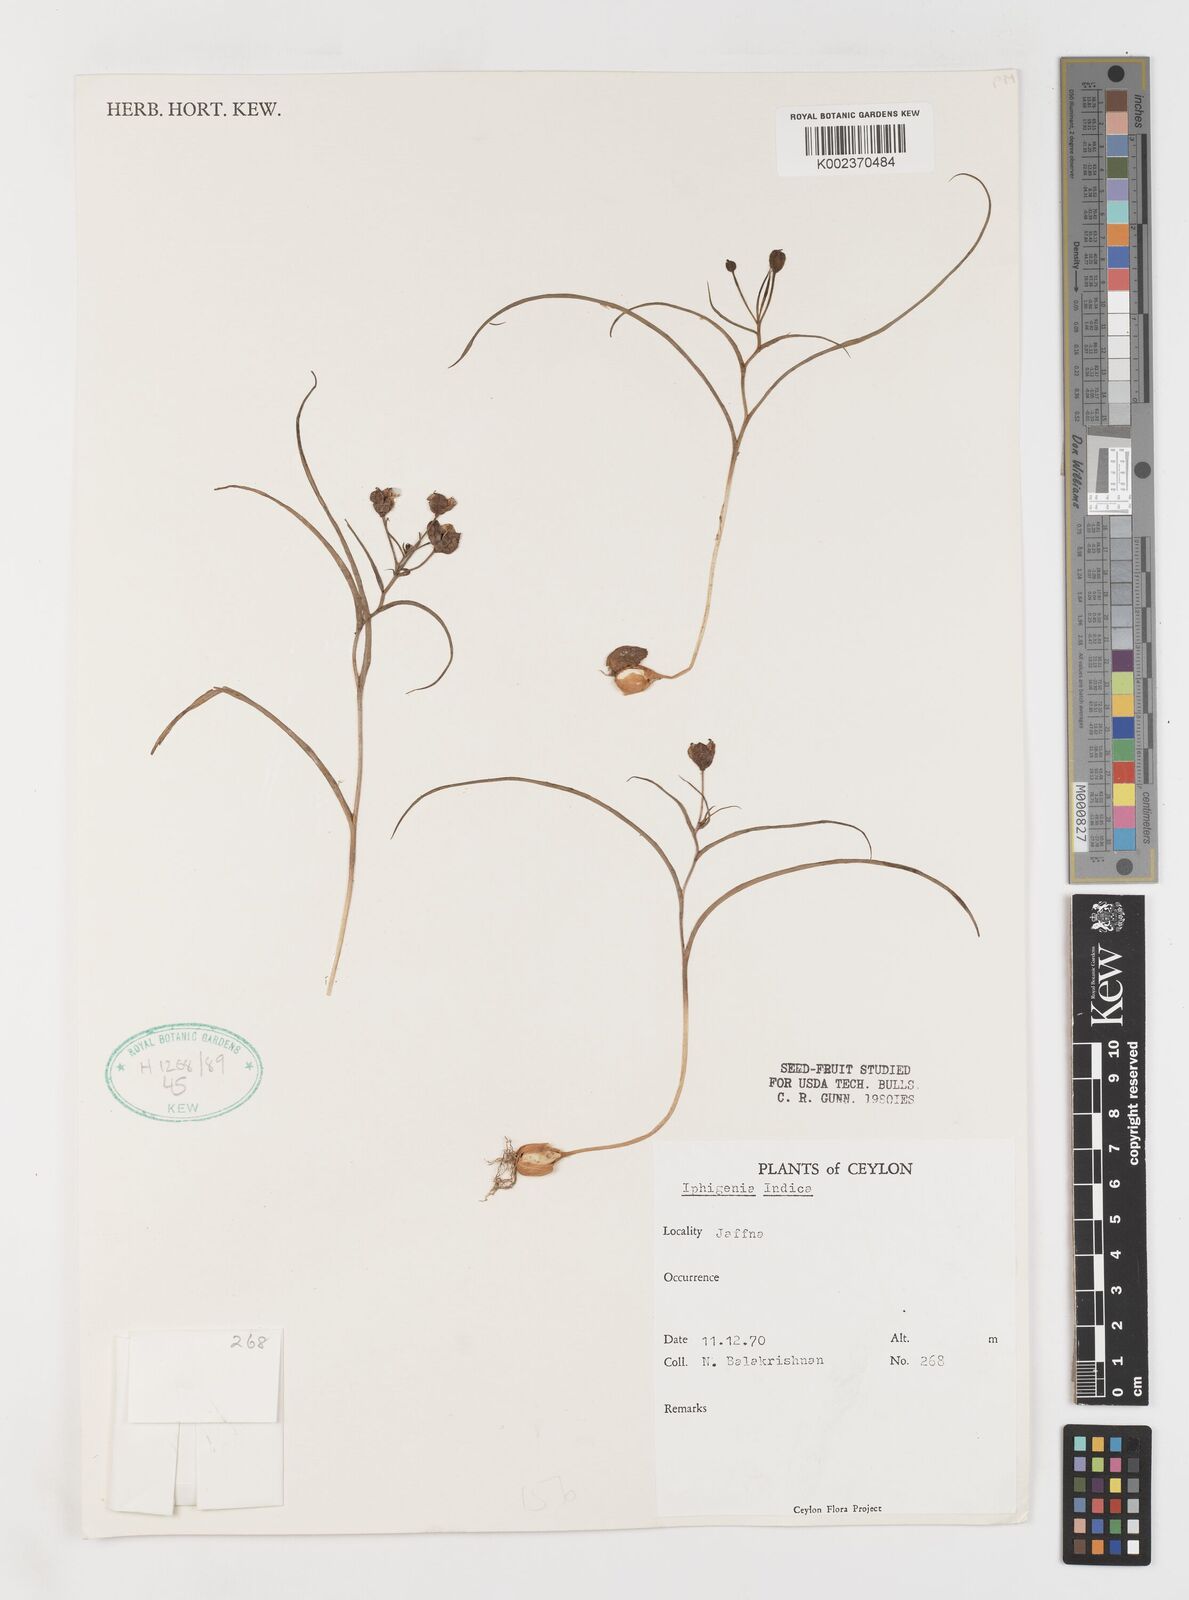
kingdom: Plantae
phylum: Tracheophyta
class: Liliopsida
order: Liliales
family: Colchicaceae
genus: Iphigenia
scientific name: Iphigenia indica
